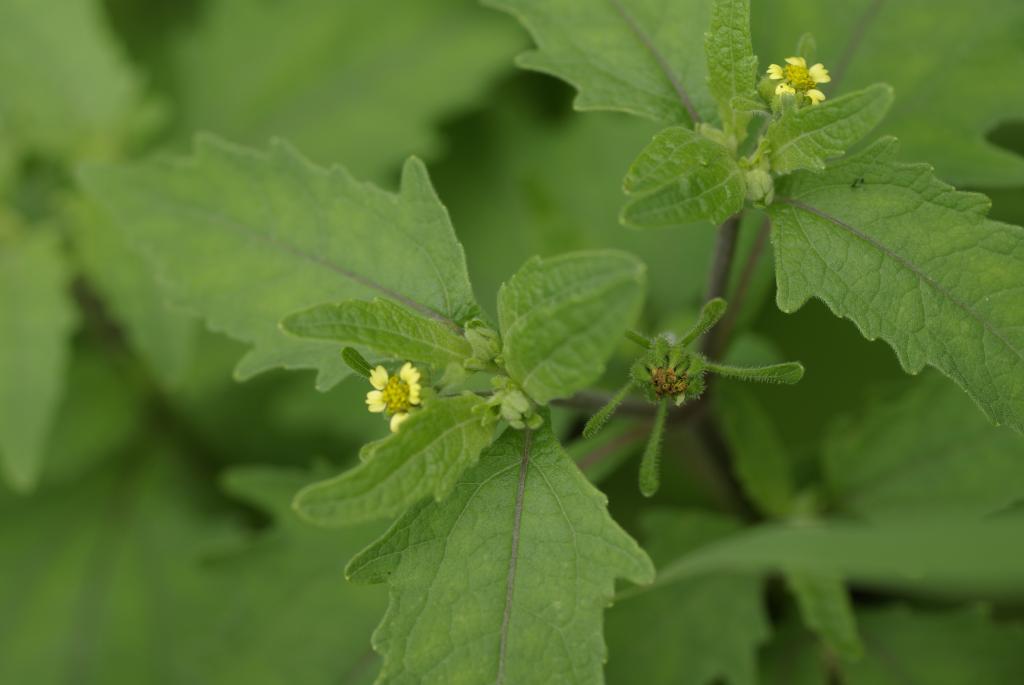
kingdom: Plantae
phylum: Tracheophyta
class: Magnoliopsida
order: Asterales
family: Asteraceae
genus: Sigesbeckia
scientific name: Sigesbeckia orientalis
